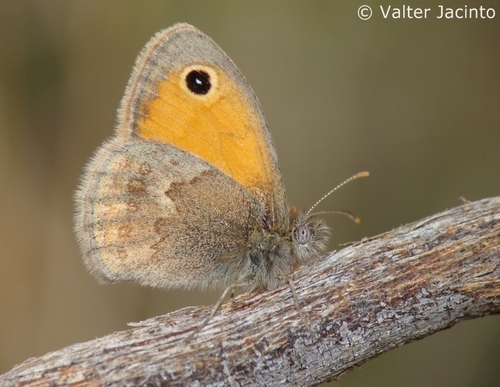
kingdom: Animalia
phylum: Arthropoda
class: Insecta
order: Lepidoptera
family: Nymphalidae
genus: Coenonympha
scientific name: Coenonympha pamphilus
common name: Small heath
